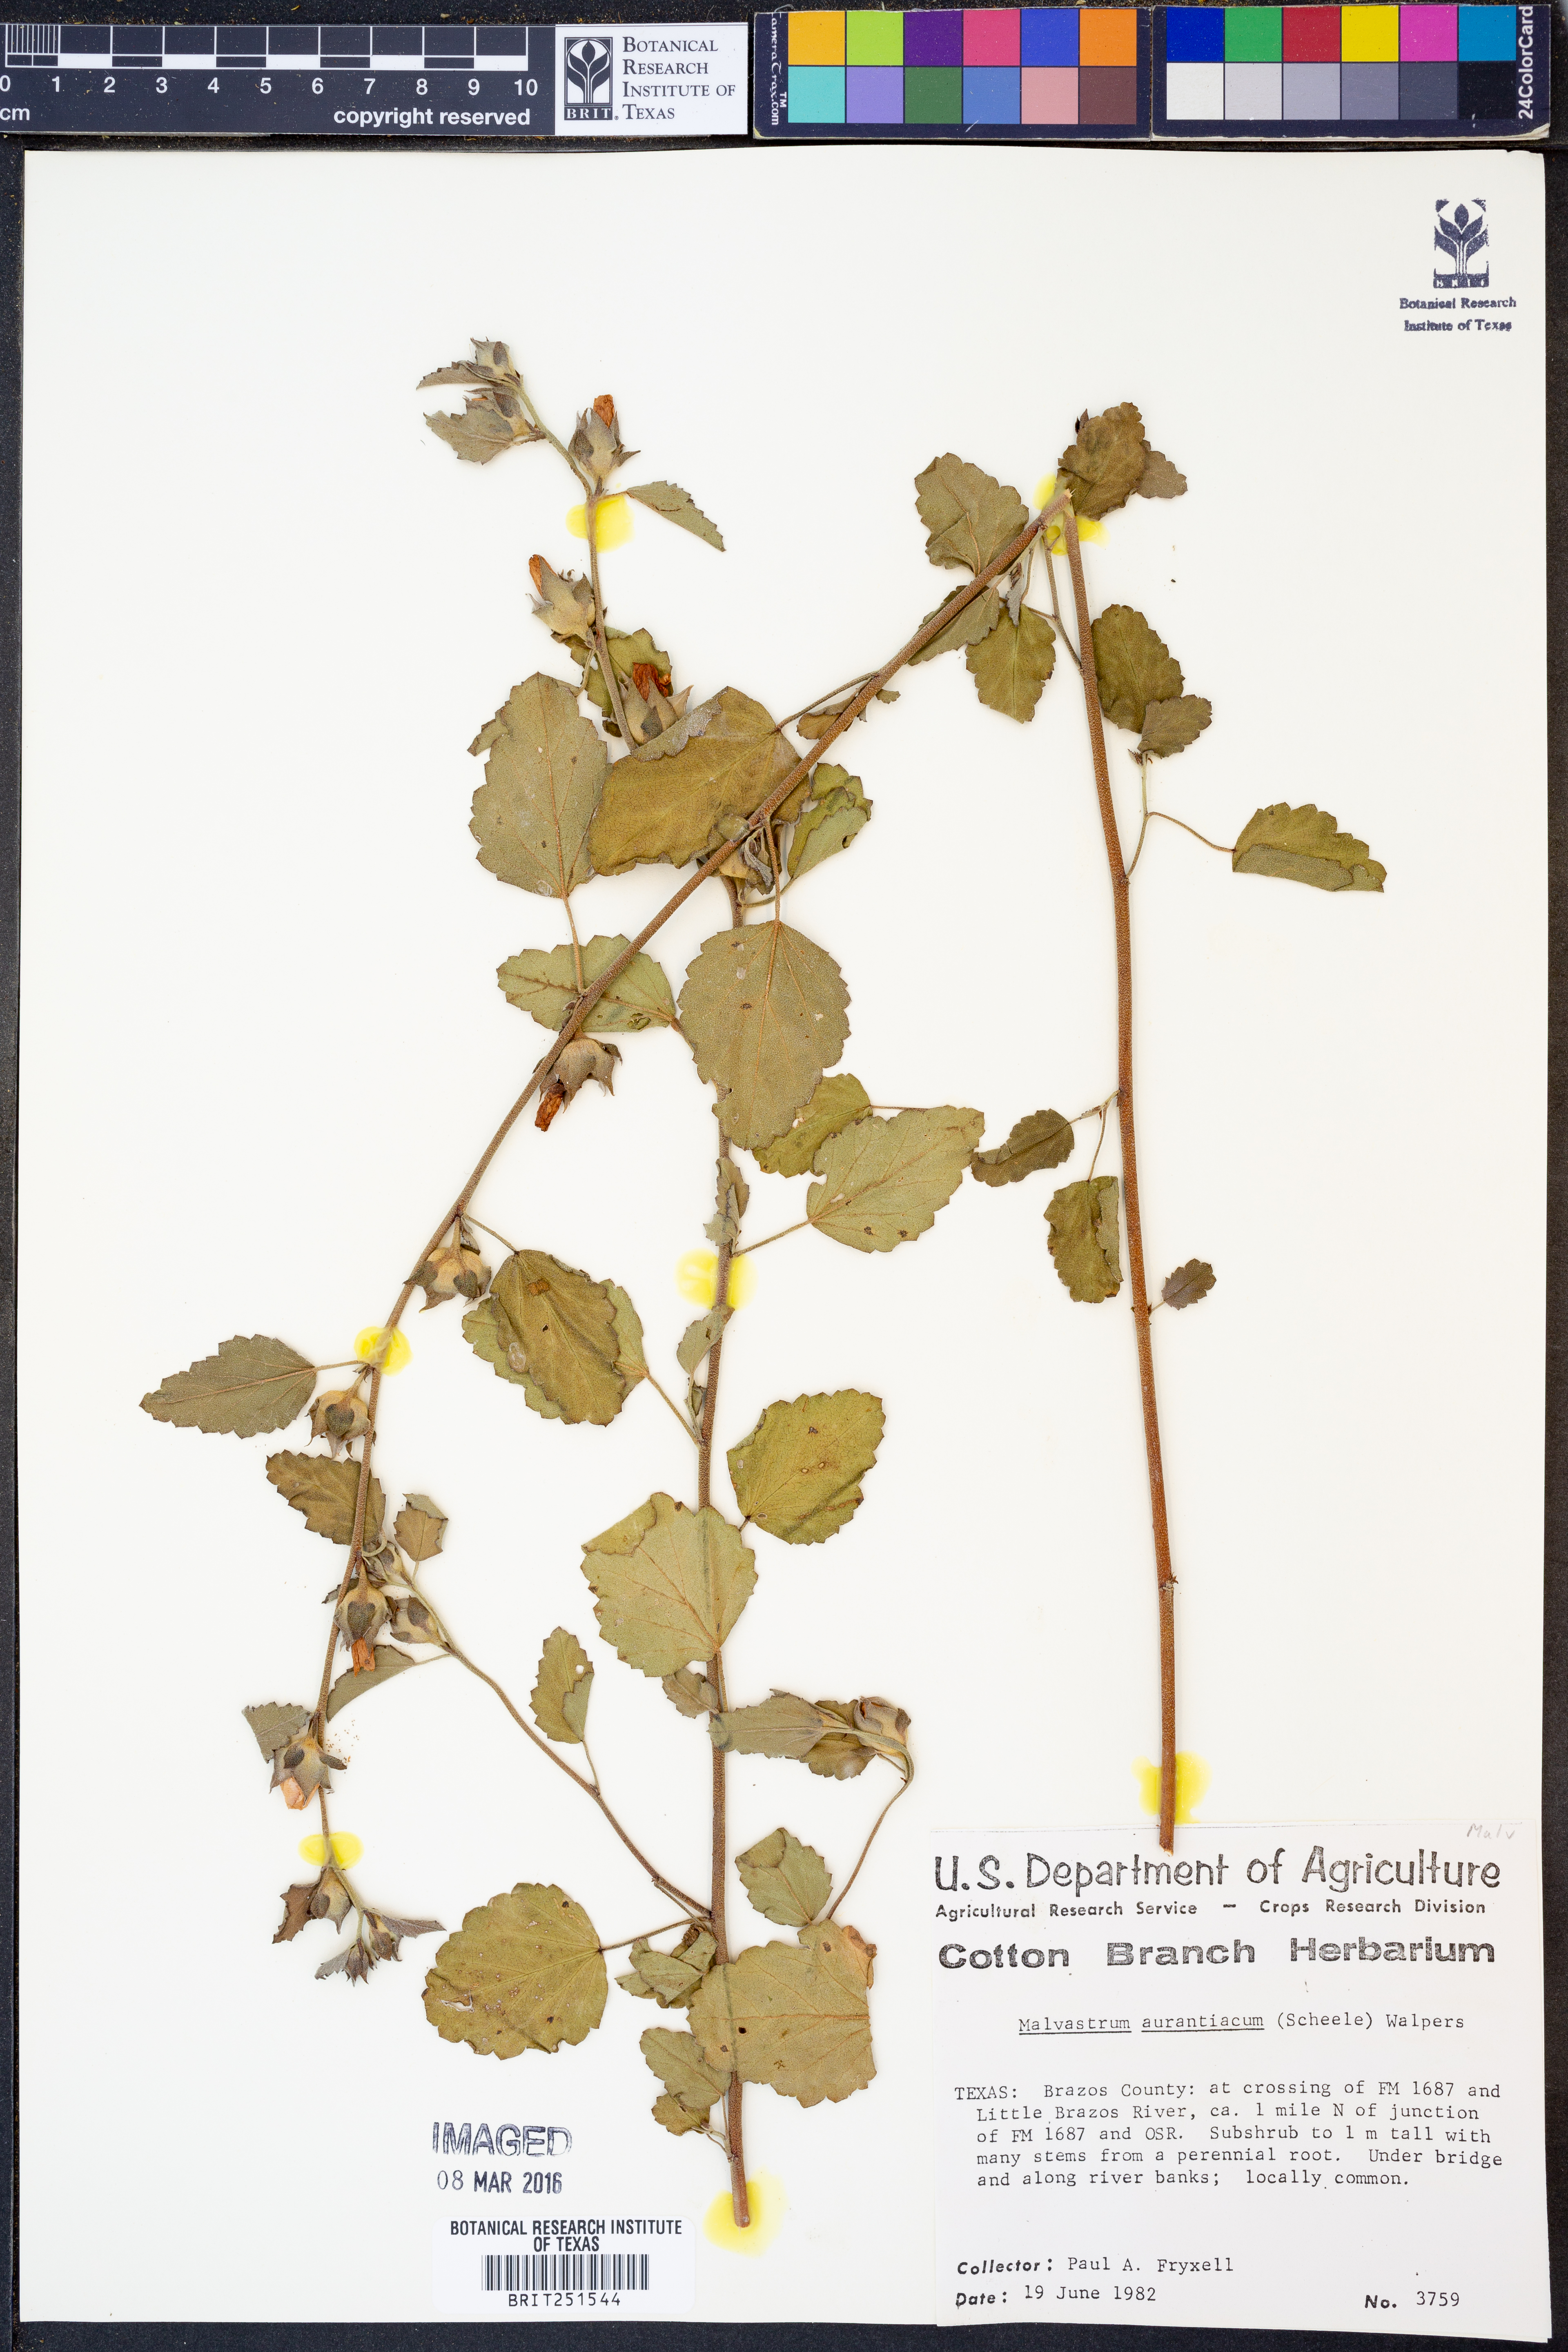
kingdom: Plantae
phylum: Tracheophyta
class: Magnoliopsida
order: Malvales
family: Malvaceae
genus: Malvastrum
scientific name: Malvastrum aurantiacum
